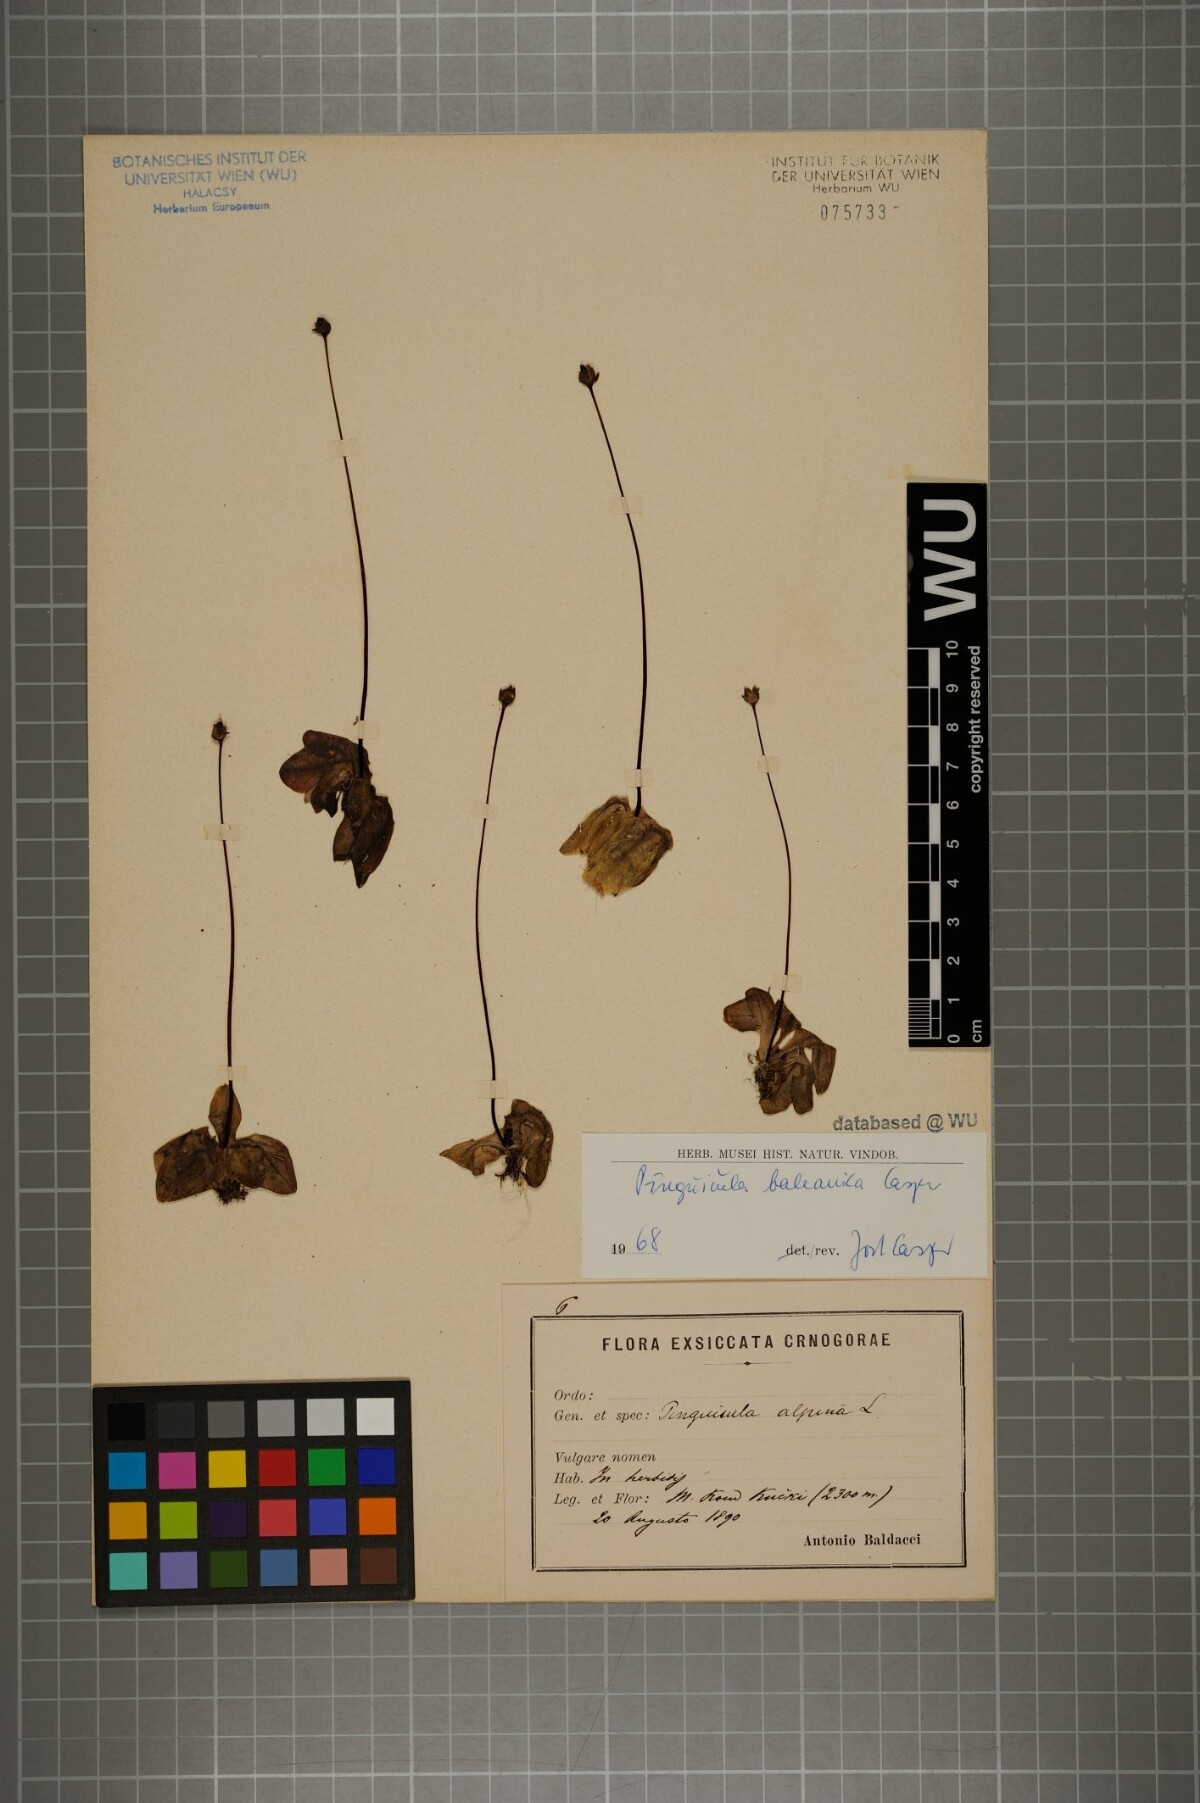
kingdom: Plantae
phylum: Tracheophyta
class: Magnoliopsida
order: Lamiales
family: Lentibulariaceae
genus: Pinguicula
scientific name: Pinguicula balcanica
